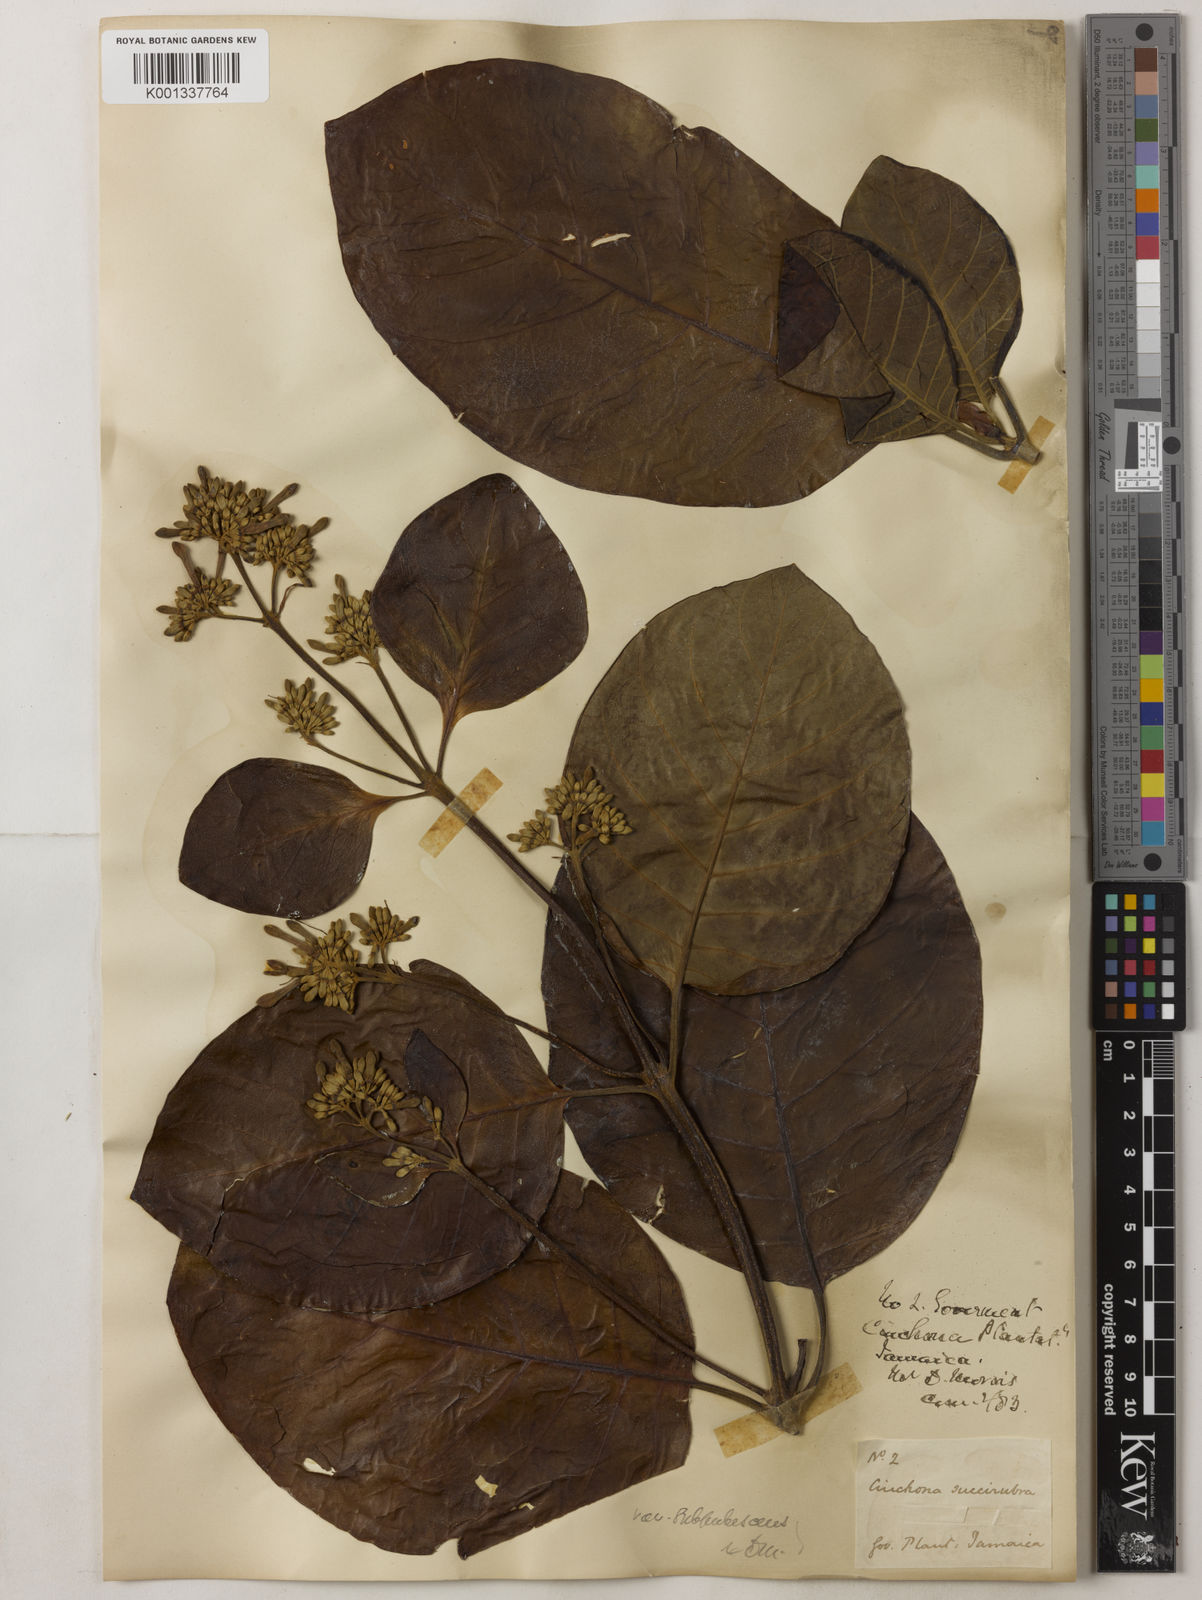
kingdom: Plantae
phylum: Tracheophyta
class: Magnoliopsida
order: Gentianales
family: Rubiaceae
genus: Cinchona
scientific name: Cinchona pubescens
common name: Quinine
